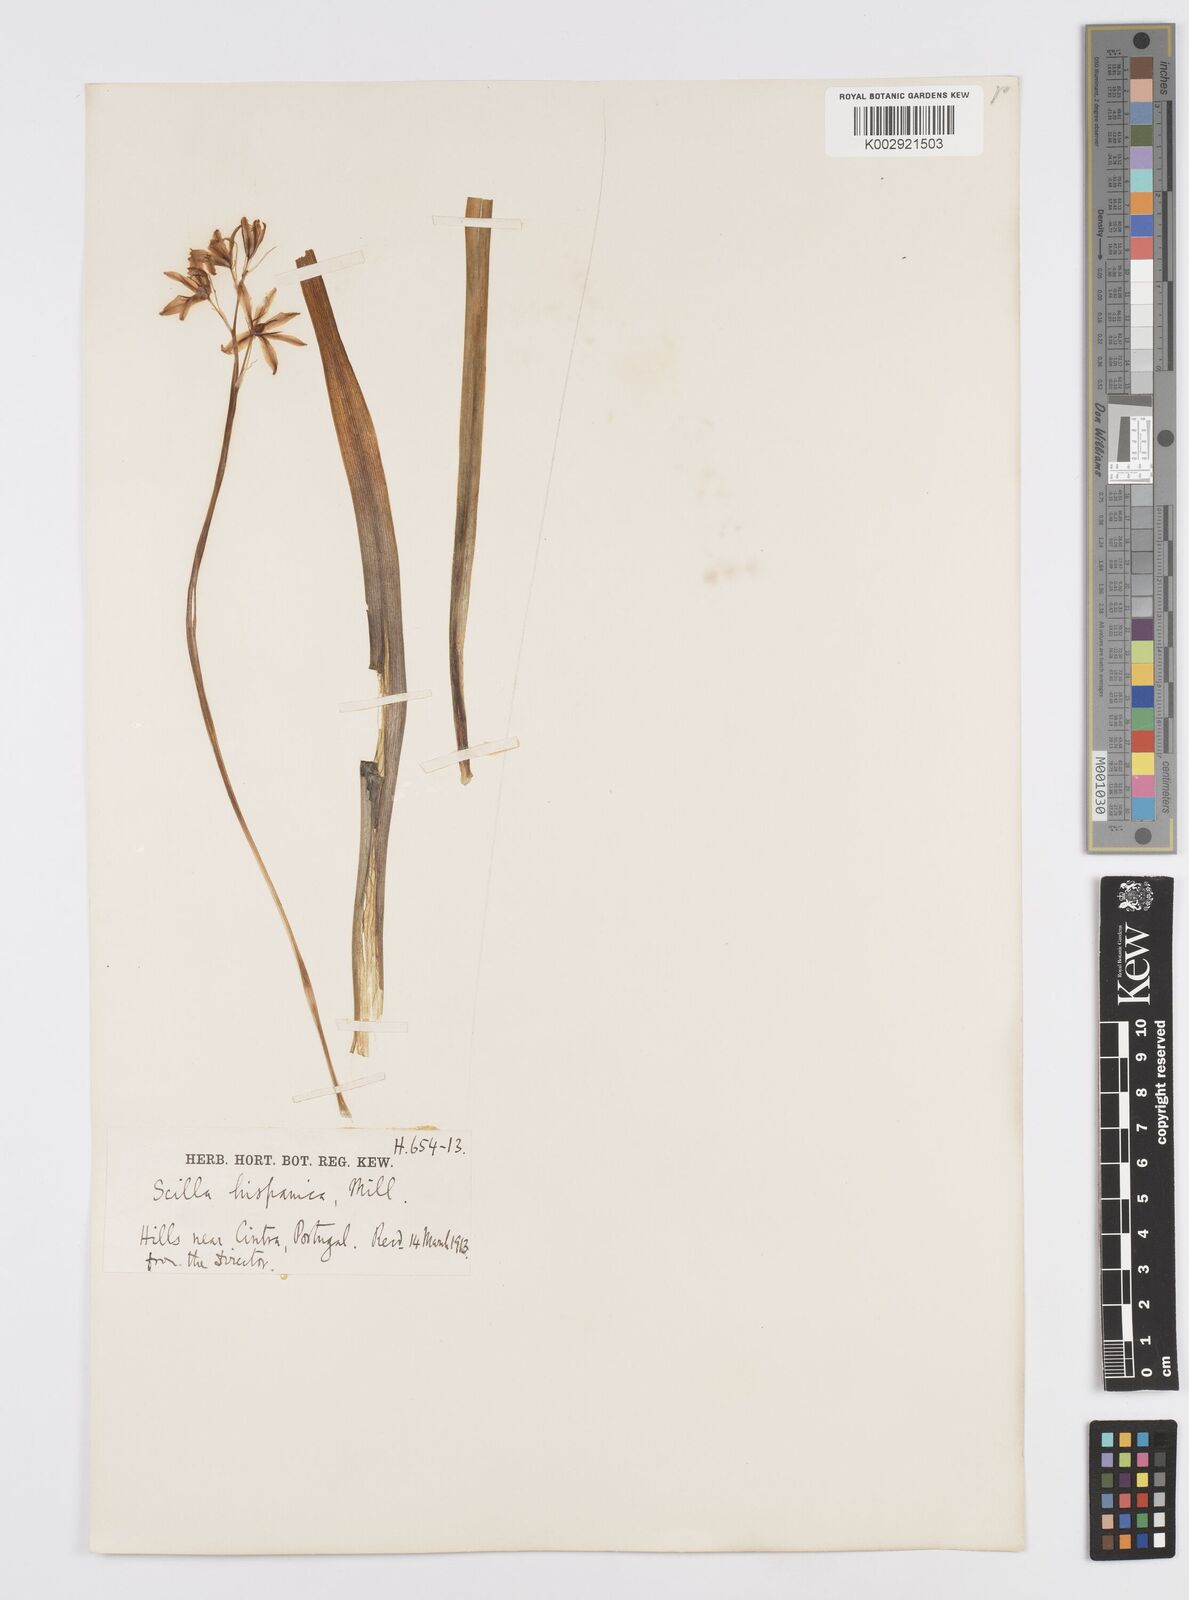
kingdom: Plantae
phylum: Tracheophyta
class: Liliopsida
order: Asparagales
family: Asparagaceae
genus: Hyacinthoides
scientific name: Hyacinthoides hispanica
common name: Spanish bluebell
